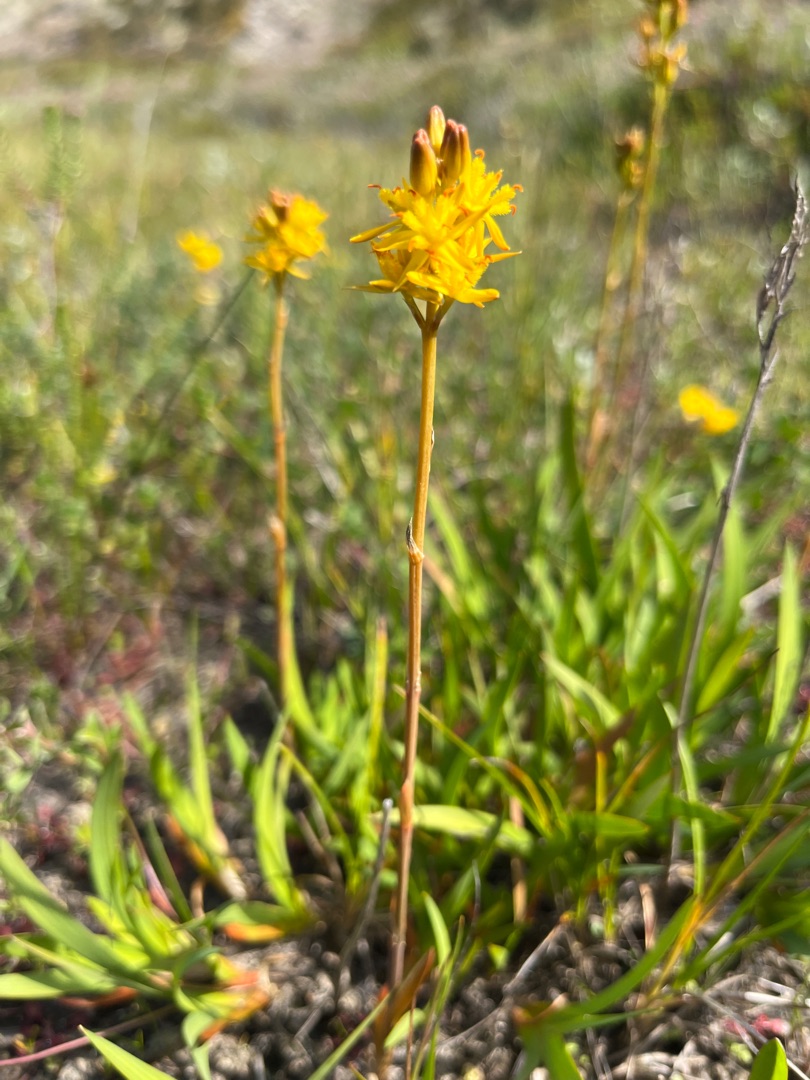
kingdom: Plantae
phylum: Tracheophyta
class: Liliopsida
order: Dioscoreales
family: Nartheciaceae
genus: Narthecium
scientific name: Narthecium ossifragum
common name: Benbræk
